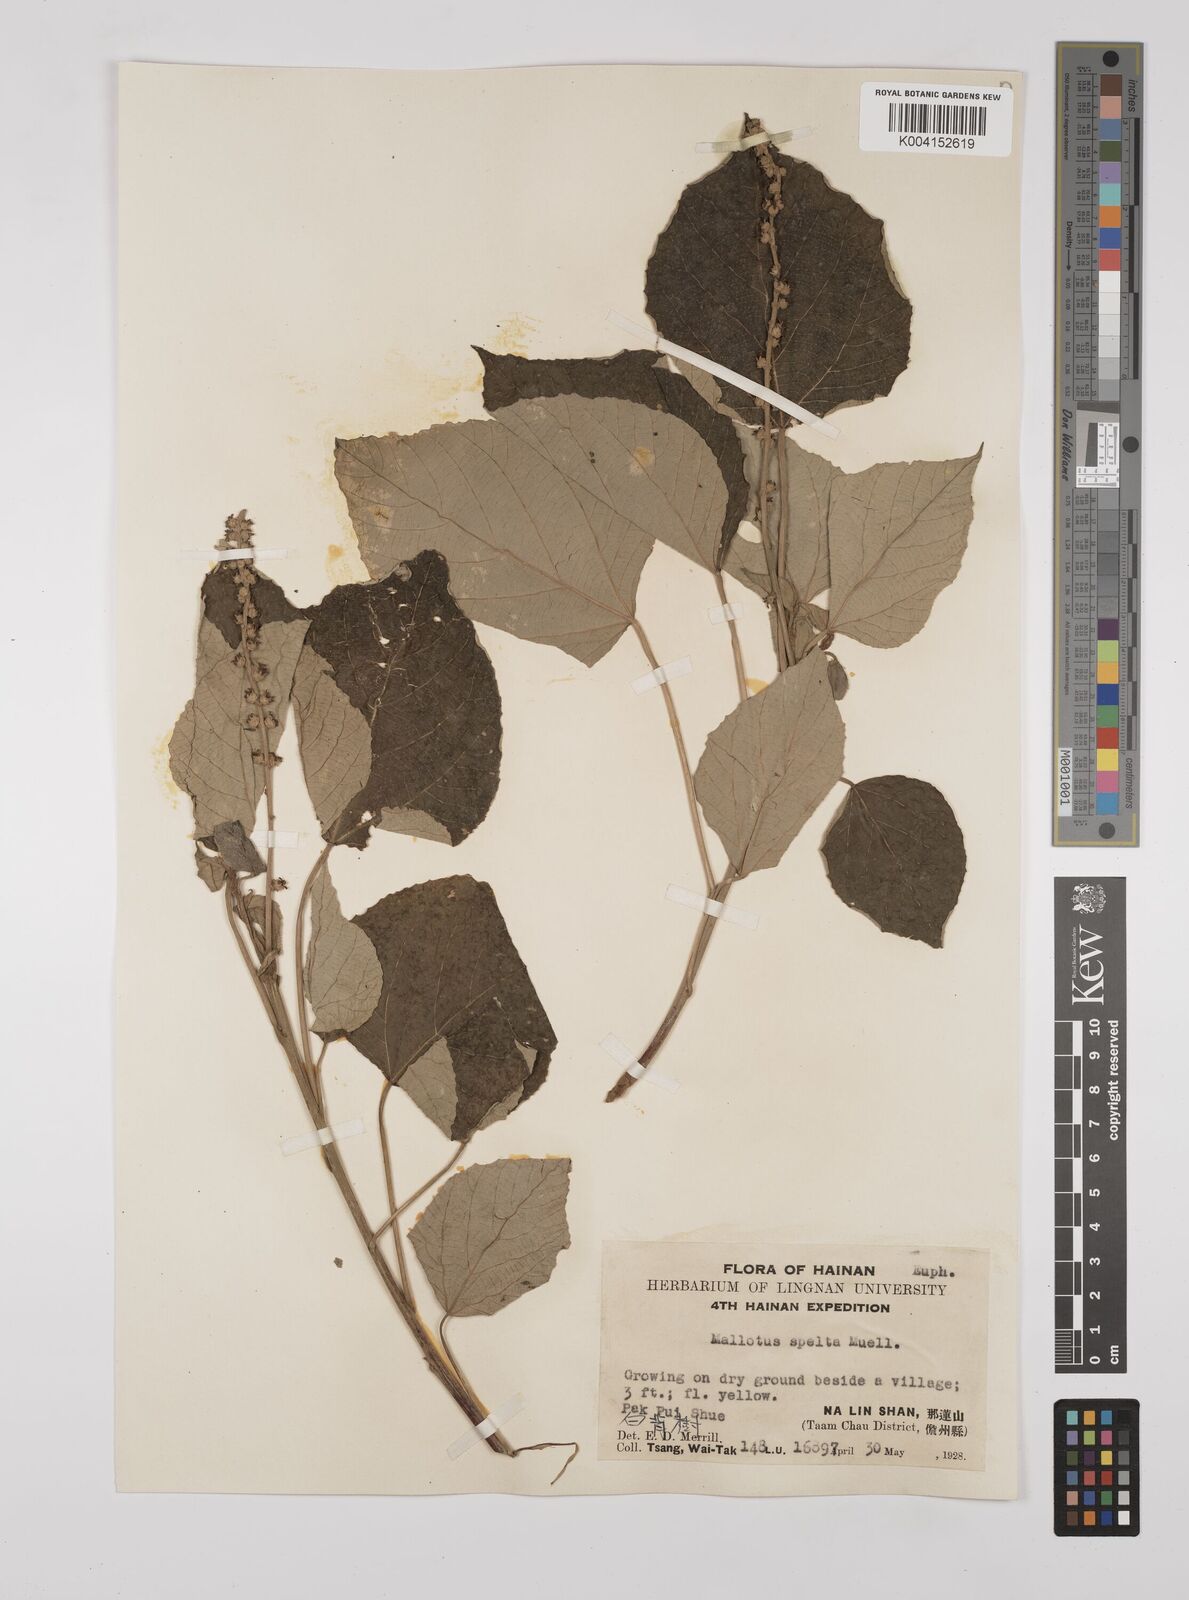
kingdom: Plantae
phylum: Tracheophyta
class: Magnoliopsida
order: Malpighiales
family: Euphorbiaceae
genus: Mallotus
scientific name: Mallotus apelta
